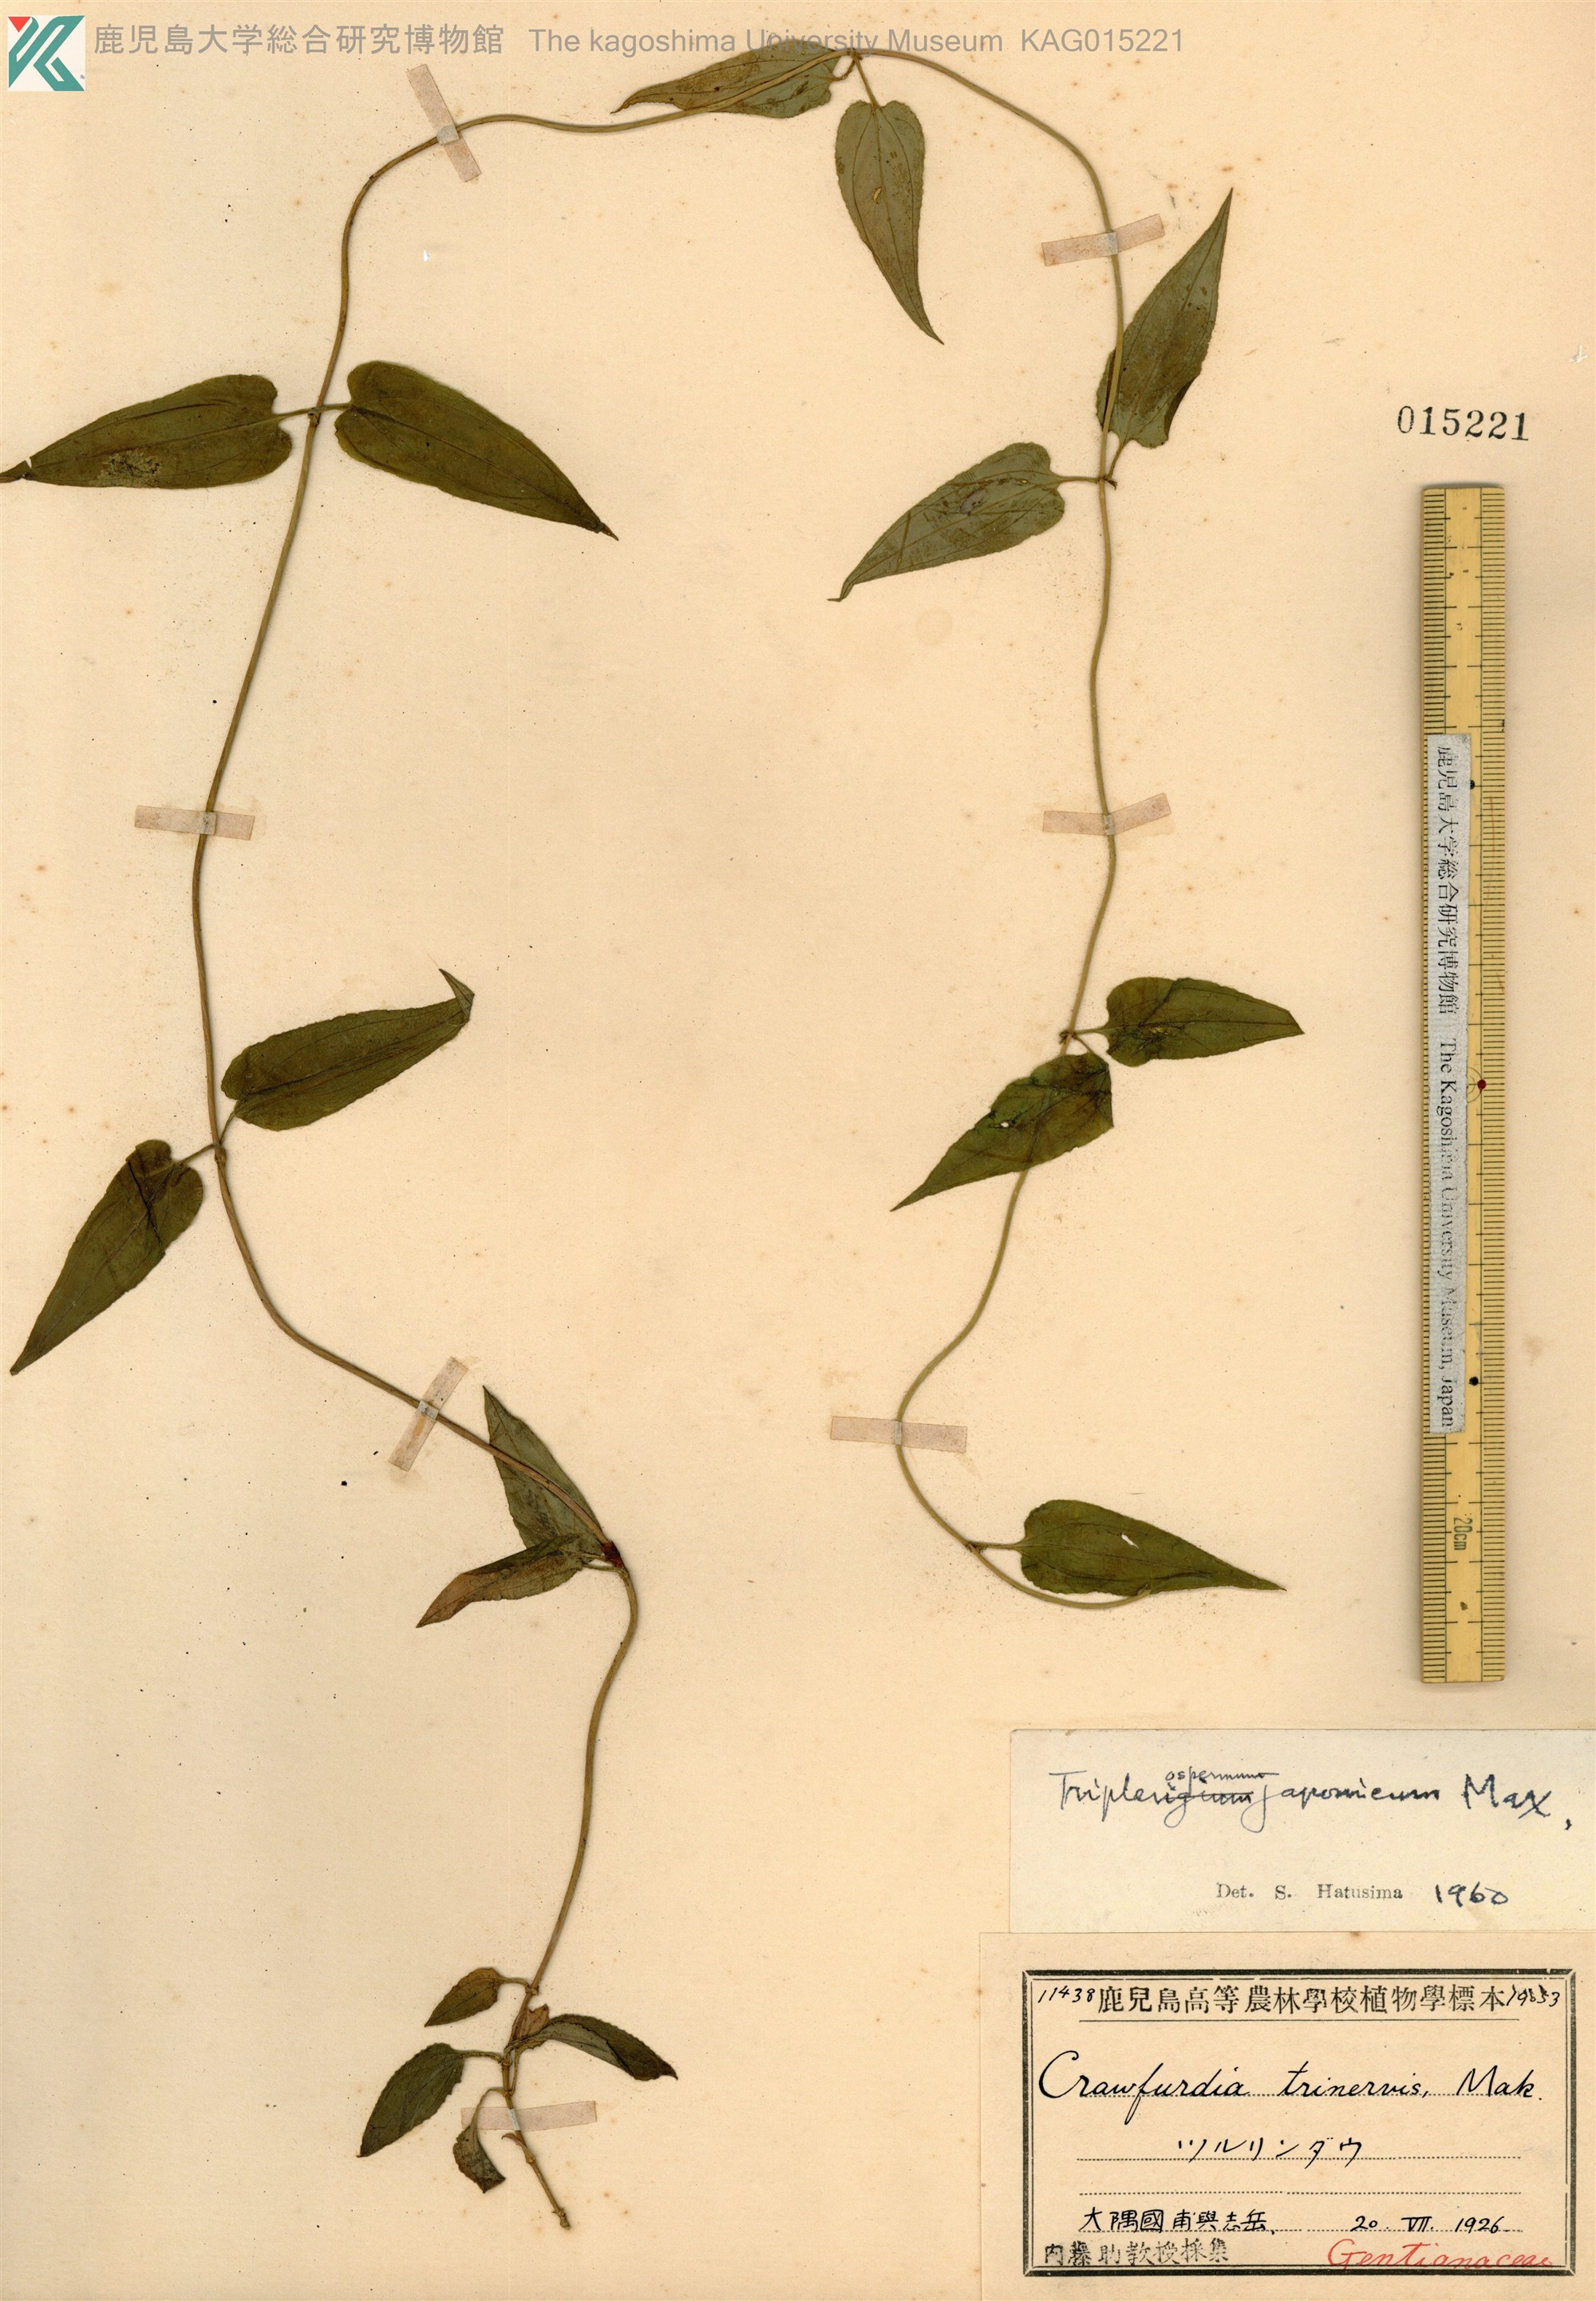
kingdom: Plantae
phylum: Tracheophyta
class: Magnoliopsida
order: Gentianales
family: Gentianaceae
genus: Tripterospermum
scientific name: Tripterospermum trinervium
